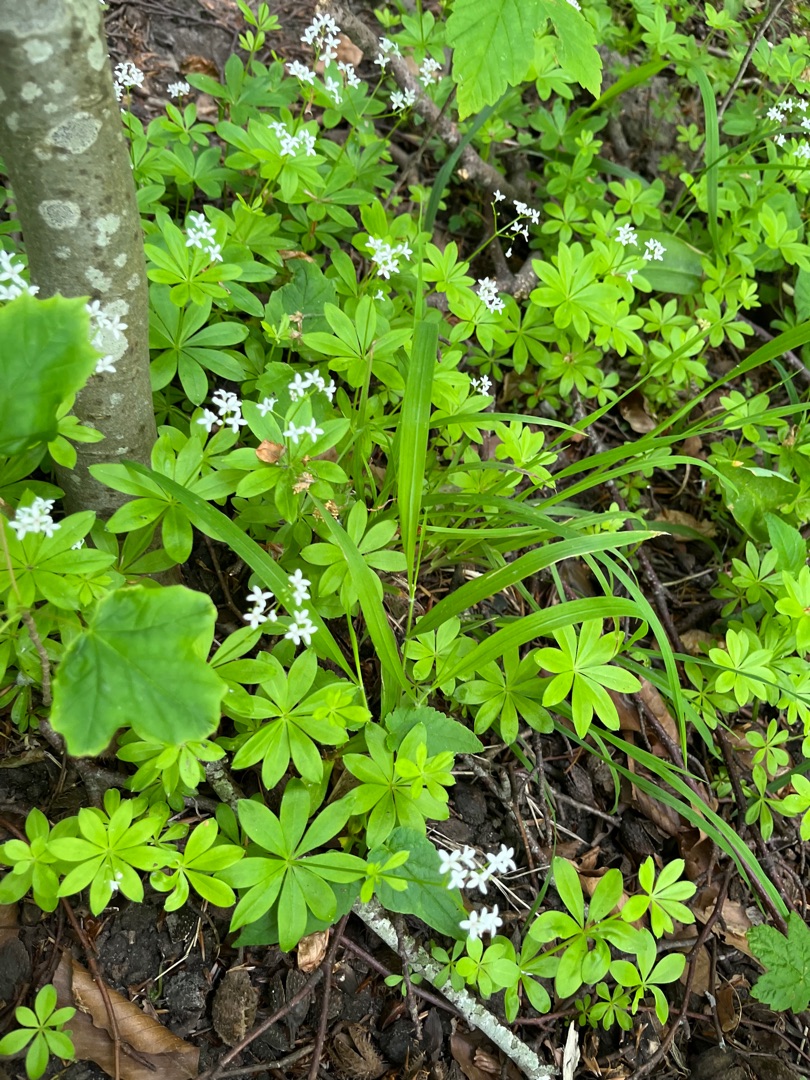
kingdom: Plantae
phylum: Tracheophyta
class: Magnoliopsida
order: Gentianales
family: Rubiaceae
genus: Galium
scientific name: Galium odoratum
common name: Skovmærke
